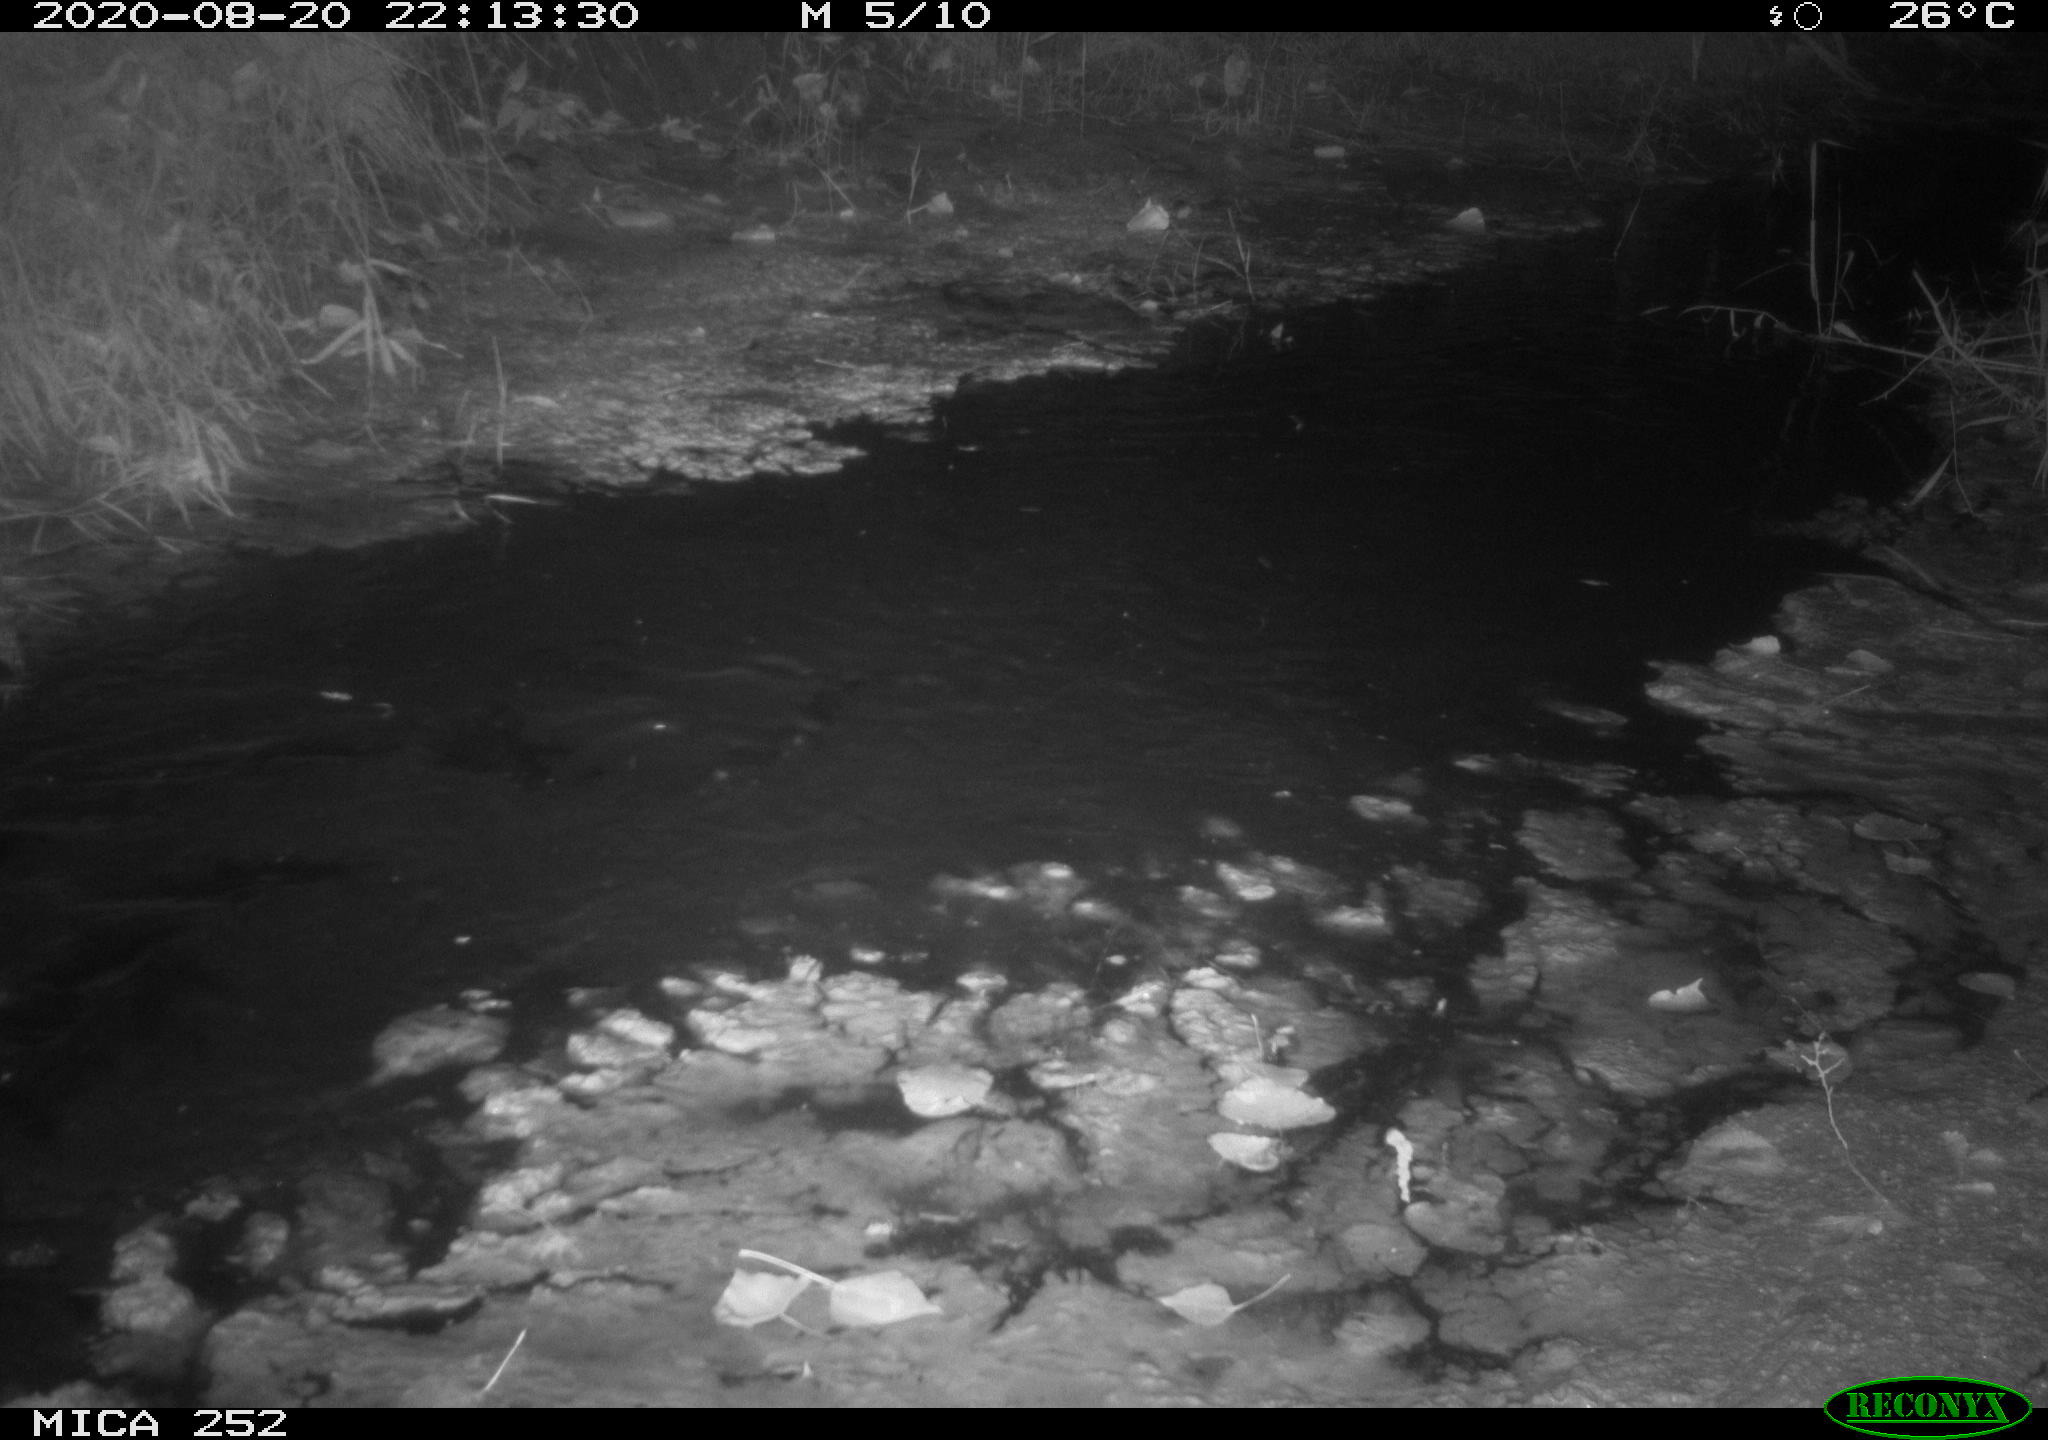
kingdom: Animalia
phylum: Chordata
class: Mammalia
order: Rodentia
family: Castoridae
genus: Castor
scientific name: Castor fiber
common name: Eurasian beaver
